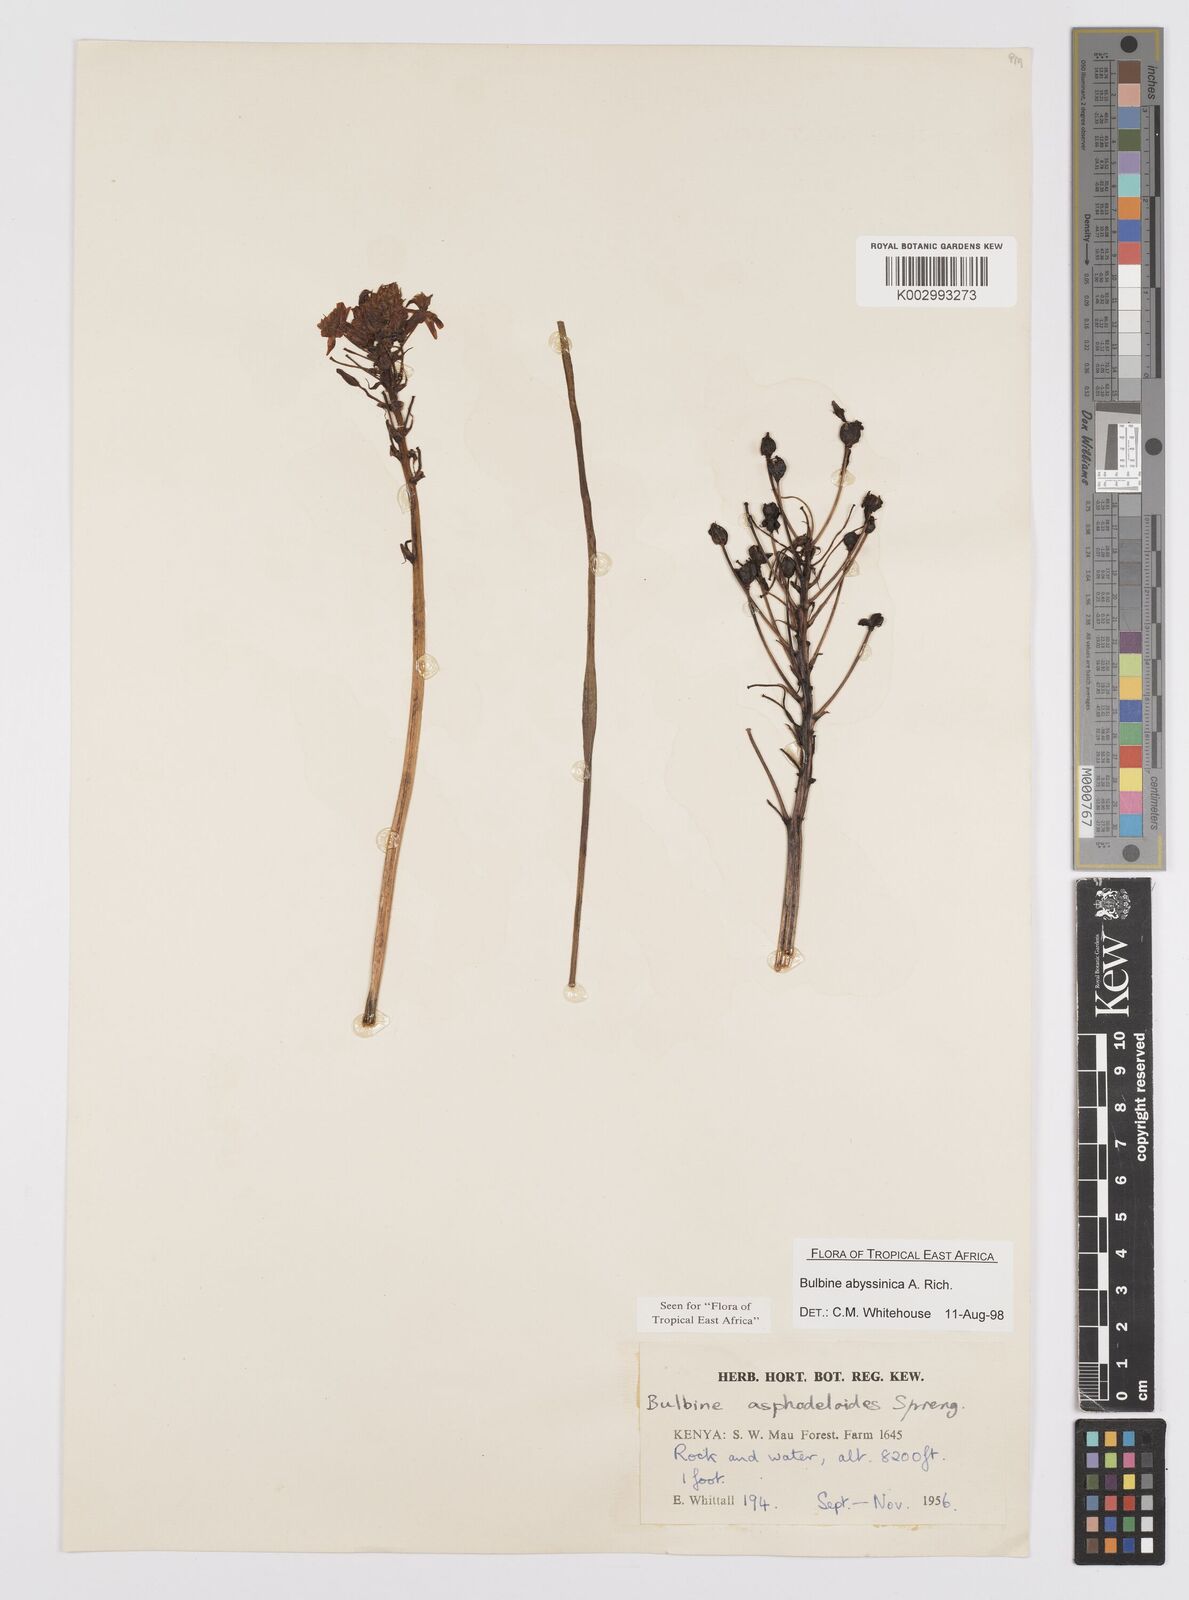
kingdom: Plantae
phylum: Tracheophyta
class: Liliopsida
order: Asparagales
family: Asphodelaceae
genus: Bulbine
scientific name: Bulbine abyssinica
